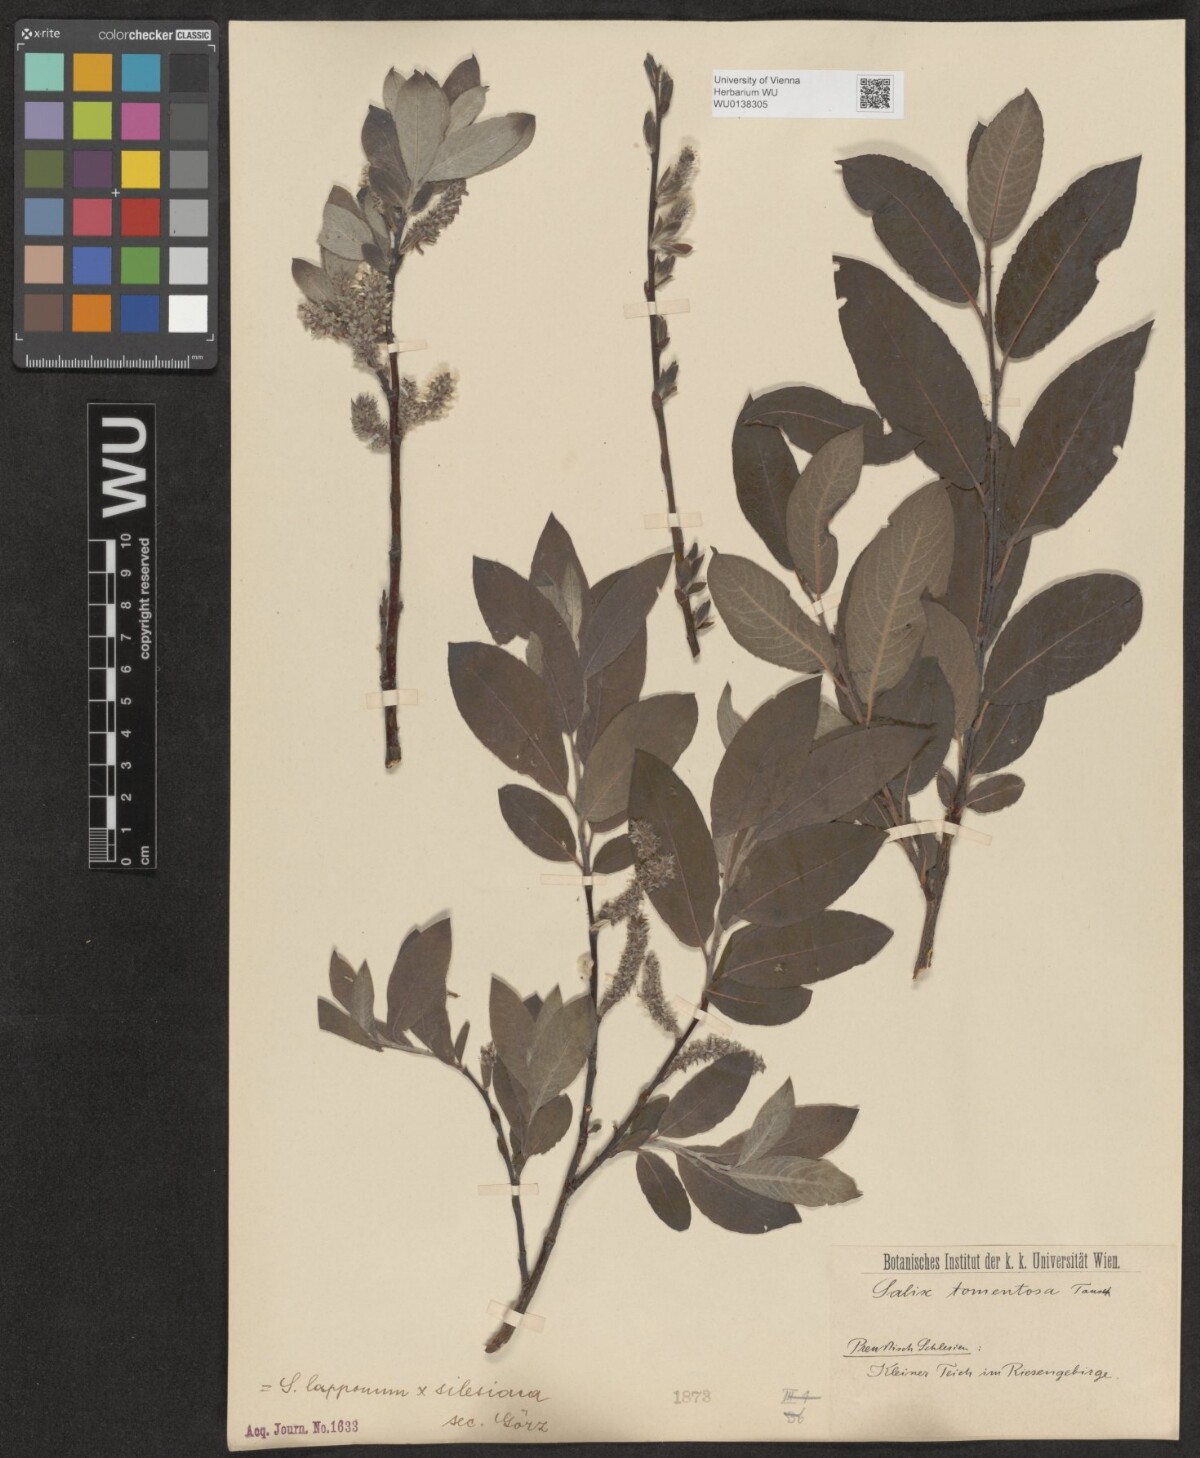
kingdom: Plantae
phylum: Tracheophyta
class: Magnoliopsida
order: Malpighiales
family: Salicaceae
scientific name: Salicaceae
